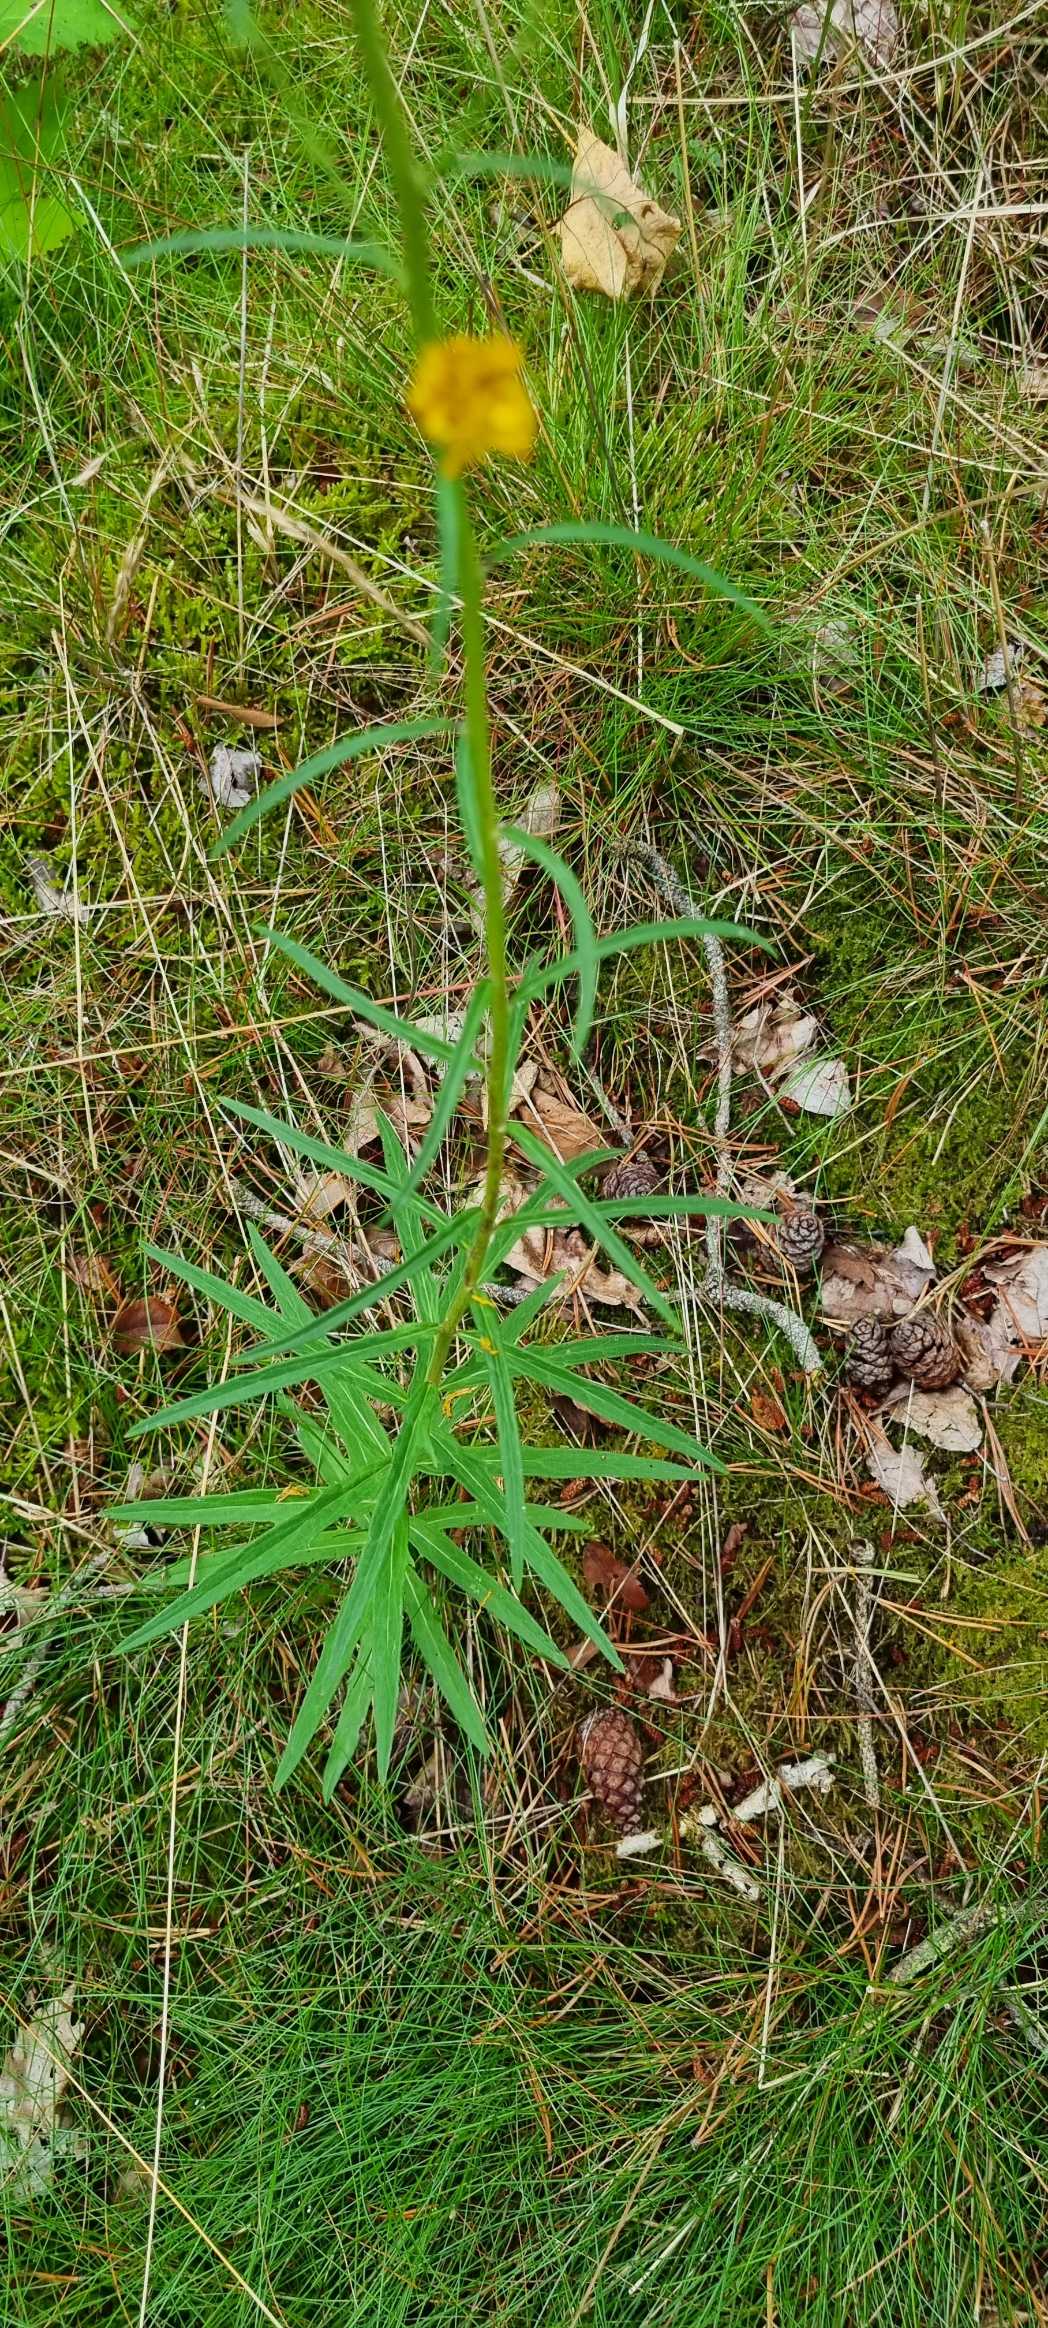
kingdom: Plantae
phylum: Tracheophyta
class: Magnoliopsida
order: Asterales
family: Asteraceae
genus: Hieracium
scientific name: Hieracium umbellatum
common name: Smalbladet høgeurt
